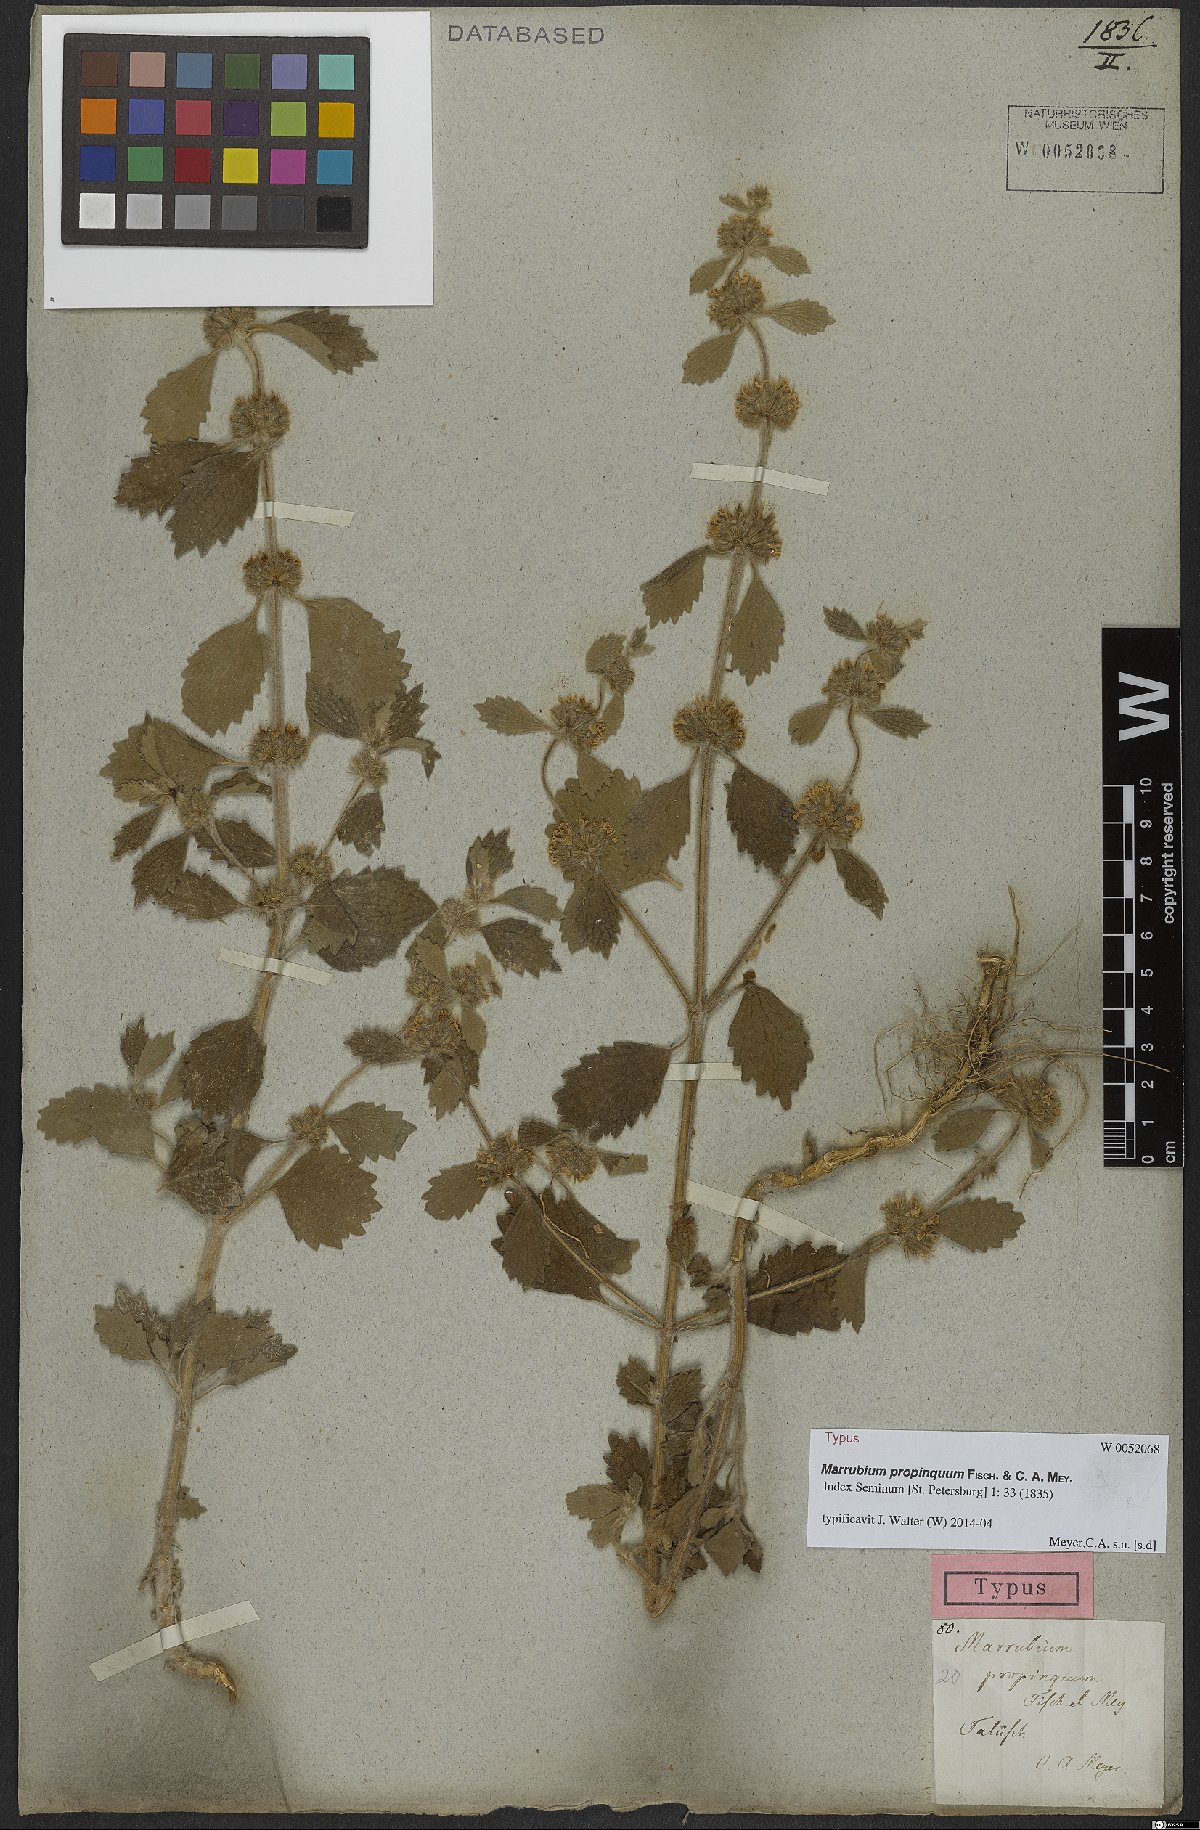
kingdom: Plantae
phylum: Tracheophyta
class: Magnoliopsida
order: Lamiales
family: Lamiaceae
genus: Marrubium
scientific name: Marrubium propinquum
